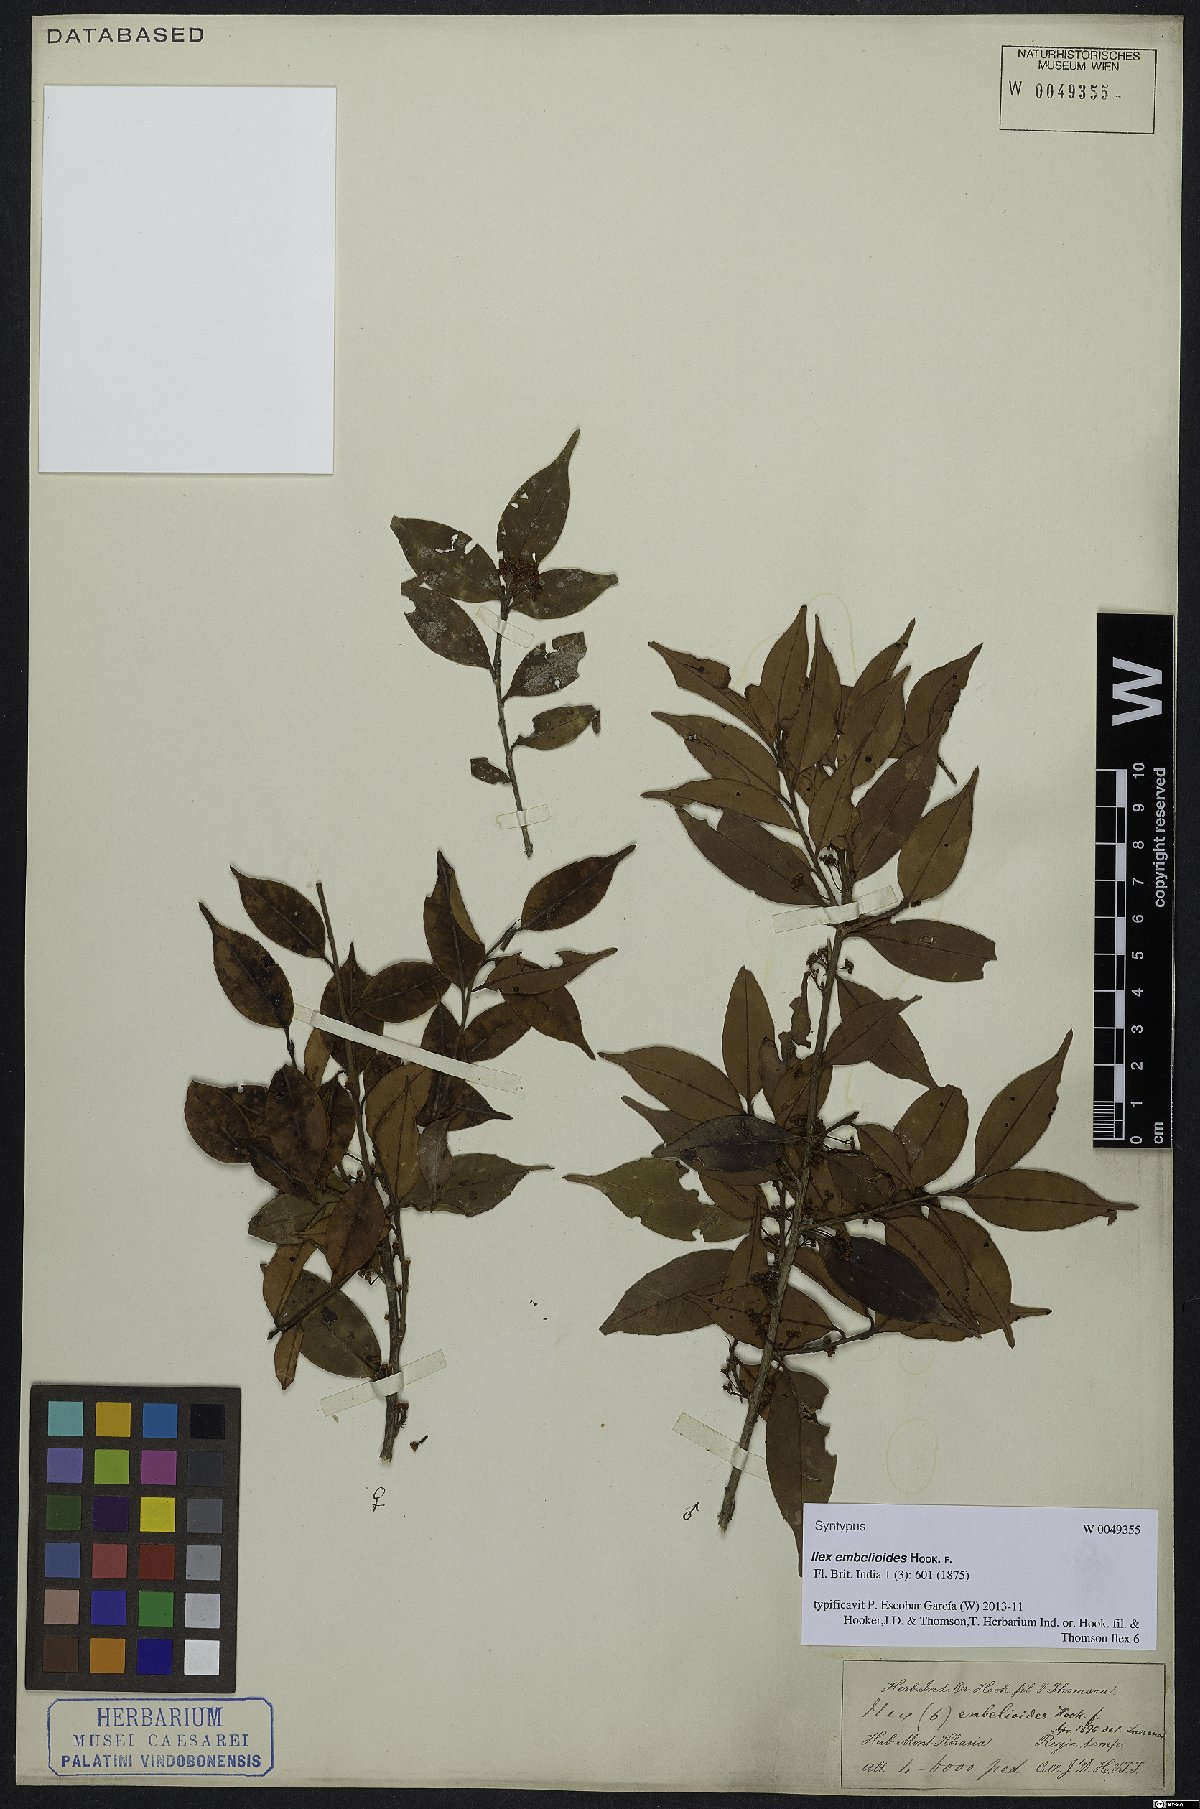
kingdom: Plantae
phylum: Tracheophyta
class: Magnoliopsida
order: Aquifoliales
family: Aquifoliaceae
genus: Ilex
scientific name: Ilex embelioides
